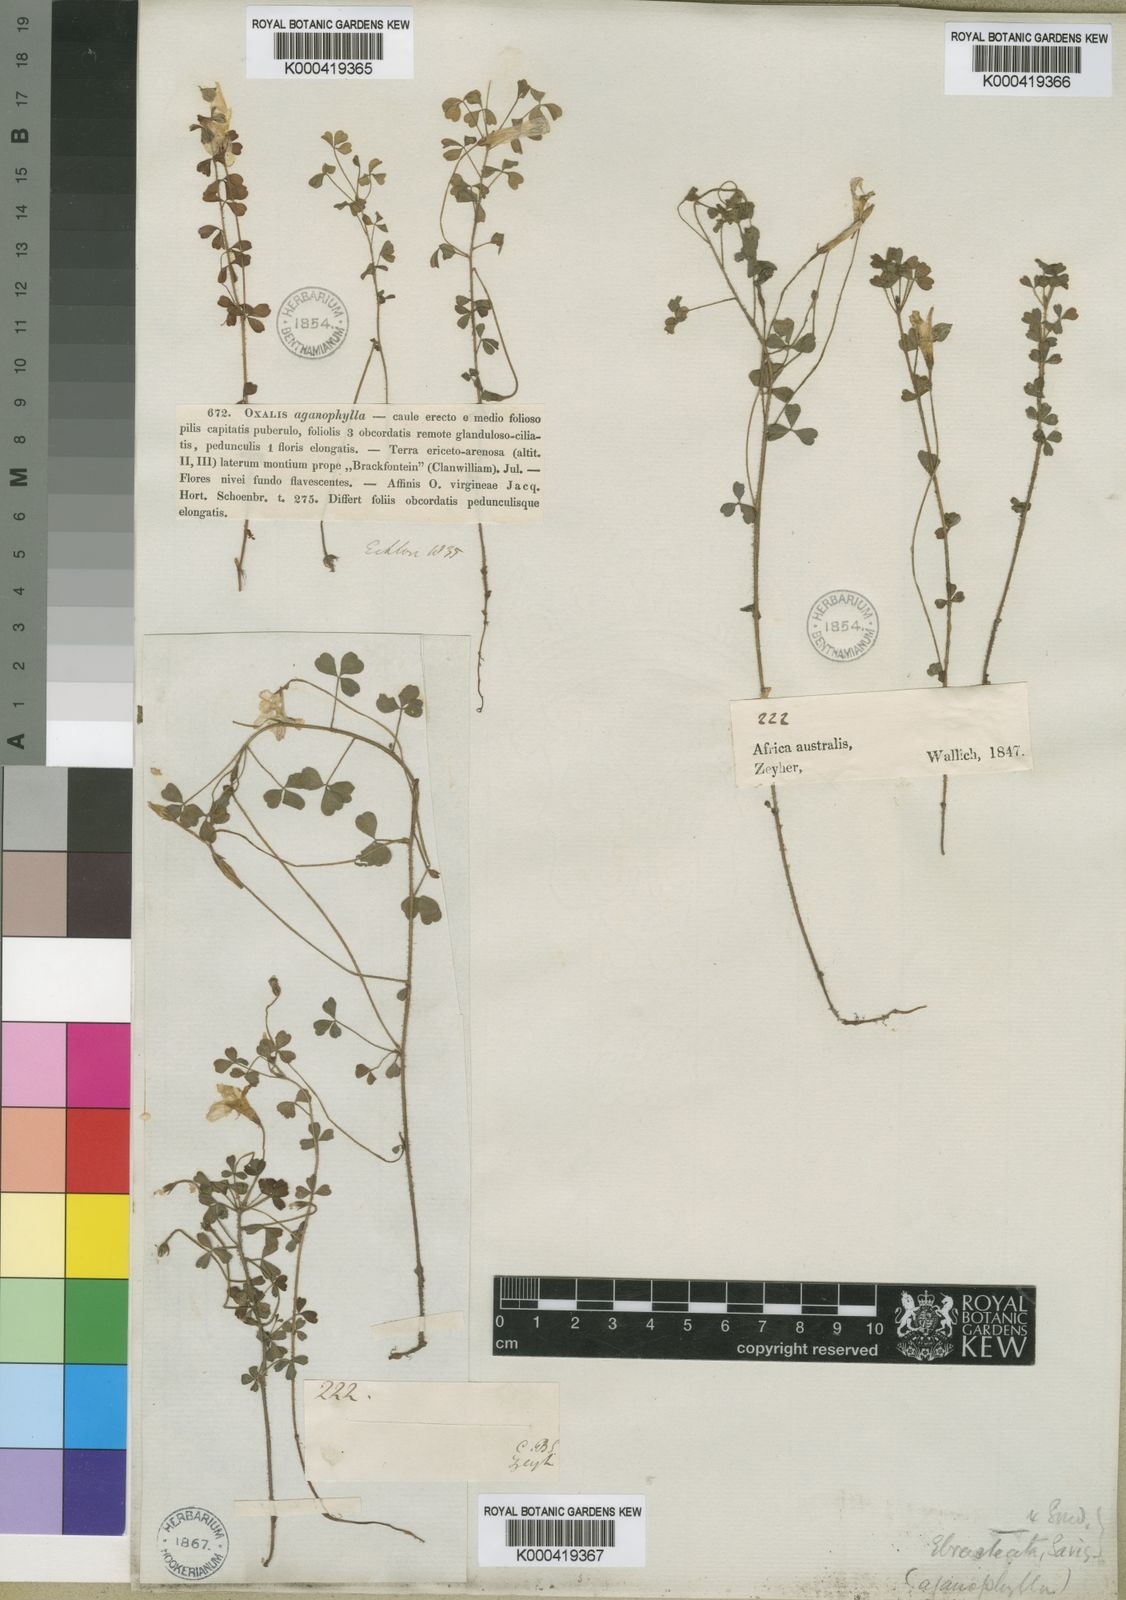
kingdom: Plantae
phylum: Tracheophyta
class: Magnoliopsida
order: Oxalidales
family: Oxalidaceae
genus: Oxalis
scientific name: Oxalis ebracteata
